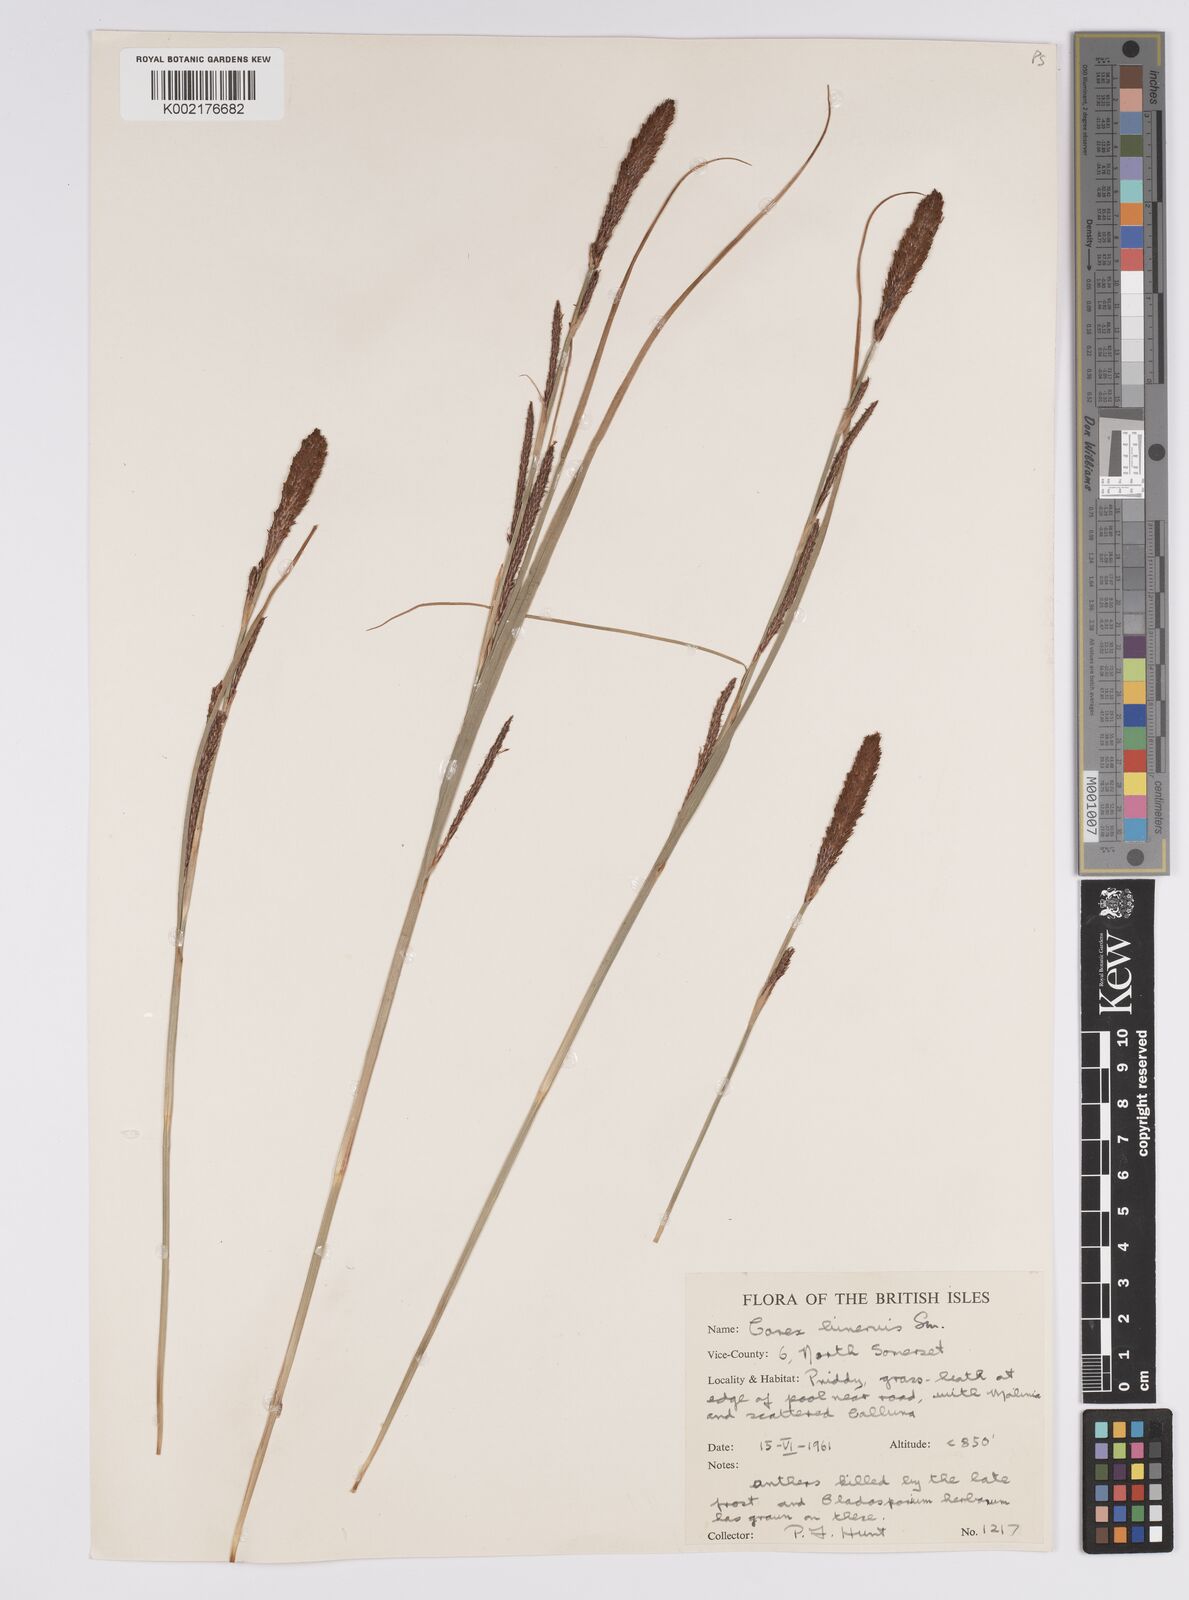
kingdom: Plantae
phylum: Tracheophyta
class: Liliopsida
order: Poales
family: Cyperaceae
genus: Carex
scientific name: Carex binervis
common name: Green-ribbed sedge
